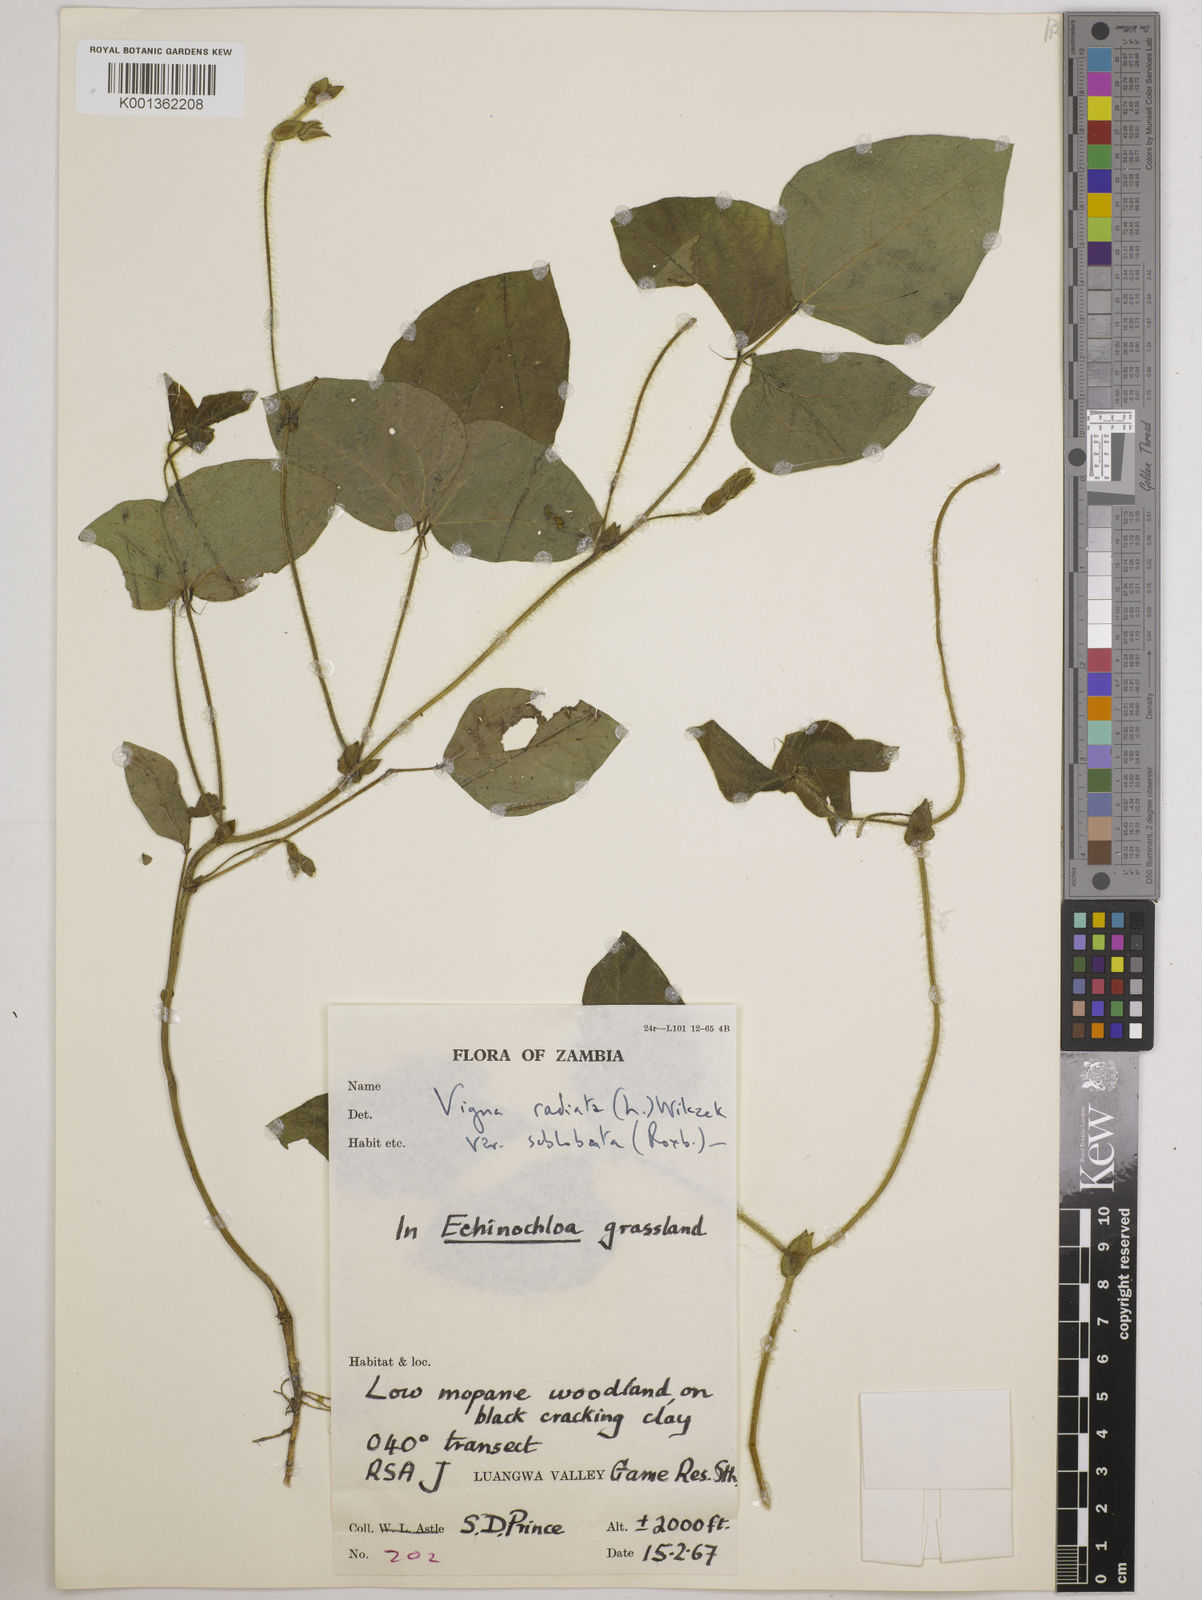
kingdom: Plantae
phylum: Tracheophyta
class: Magnoliopsida
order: Fabales
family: Fabaceae
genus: Vigna
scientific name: Vigna radiata
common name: Mung-bean
